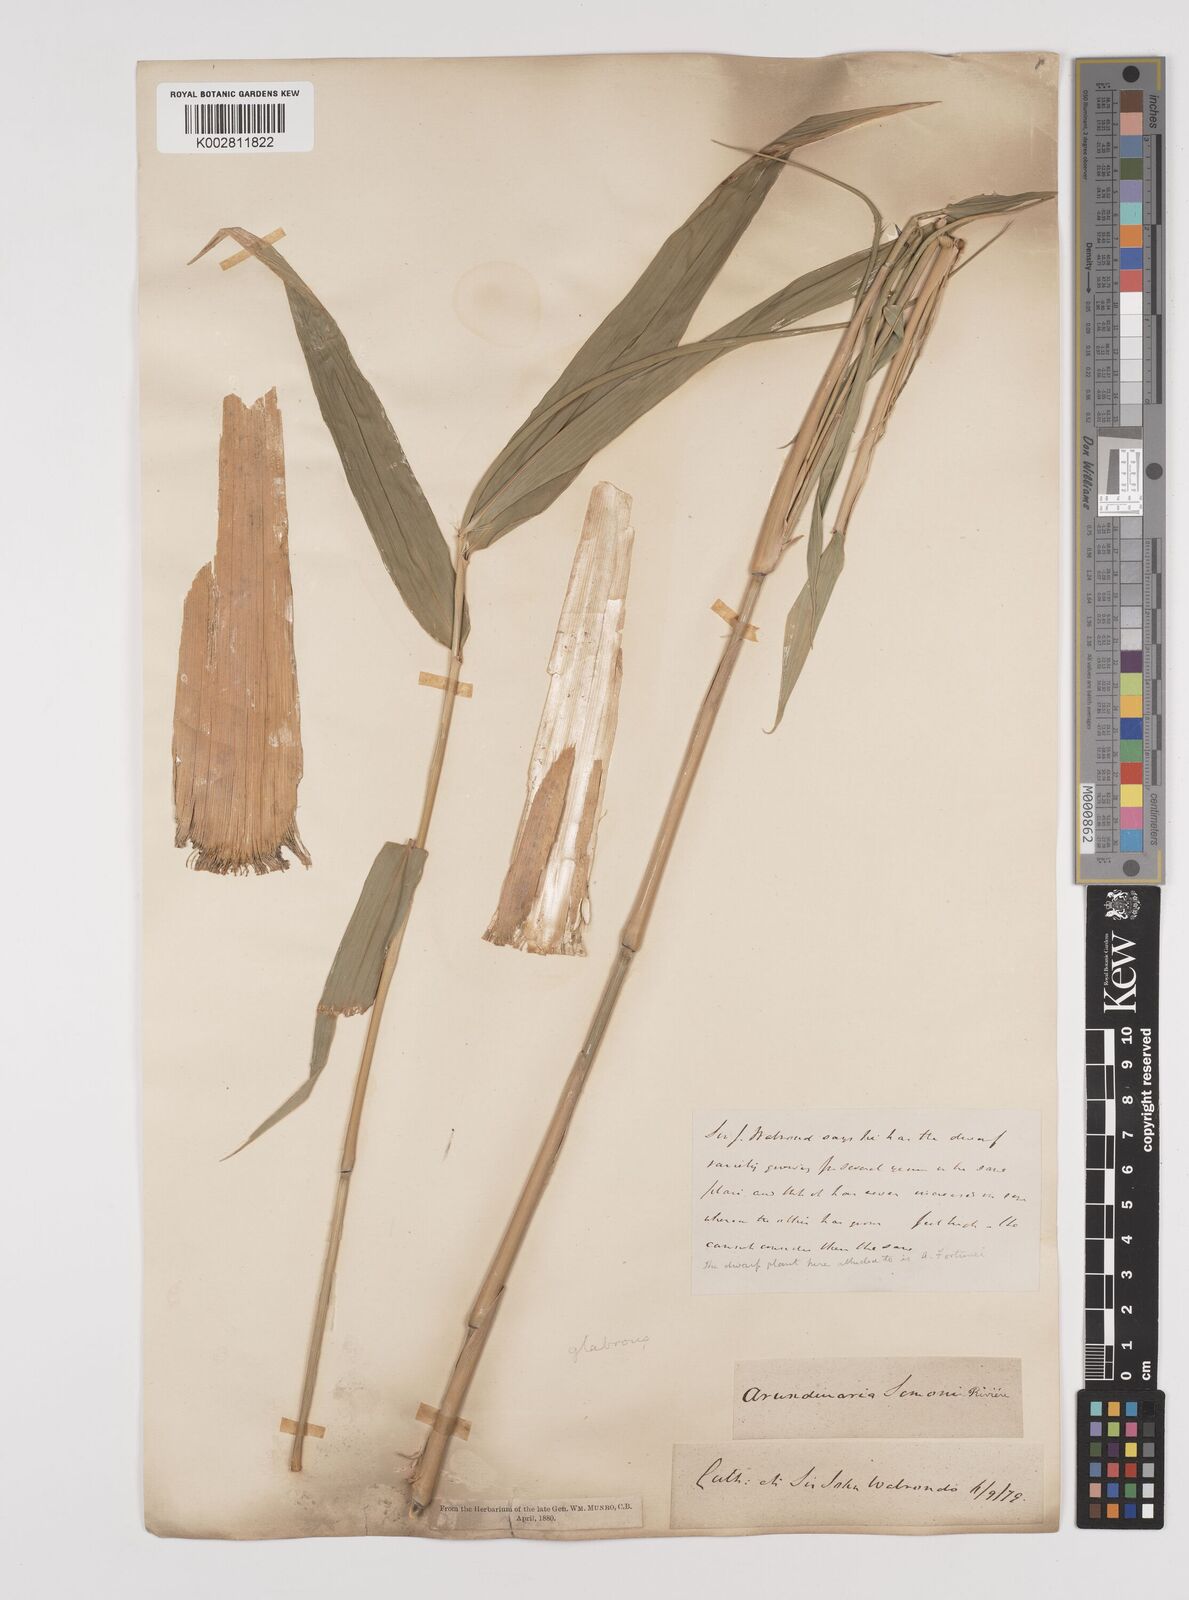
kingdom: Plantae
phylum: Tracheophyta
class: Liliopsida
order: Poales
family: Poaceae
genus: Pleioblastus
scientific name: Pleioblastus simonii
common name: Simon bamboo
